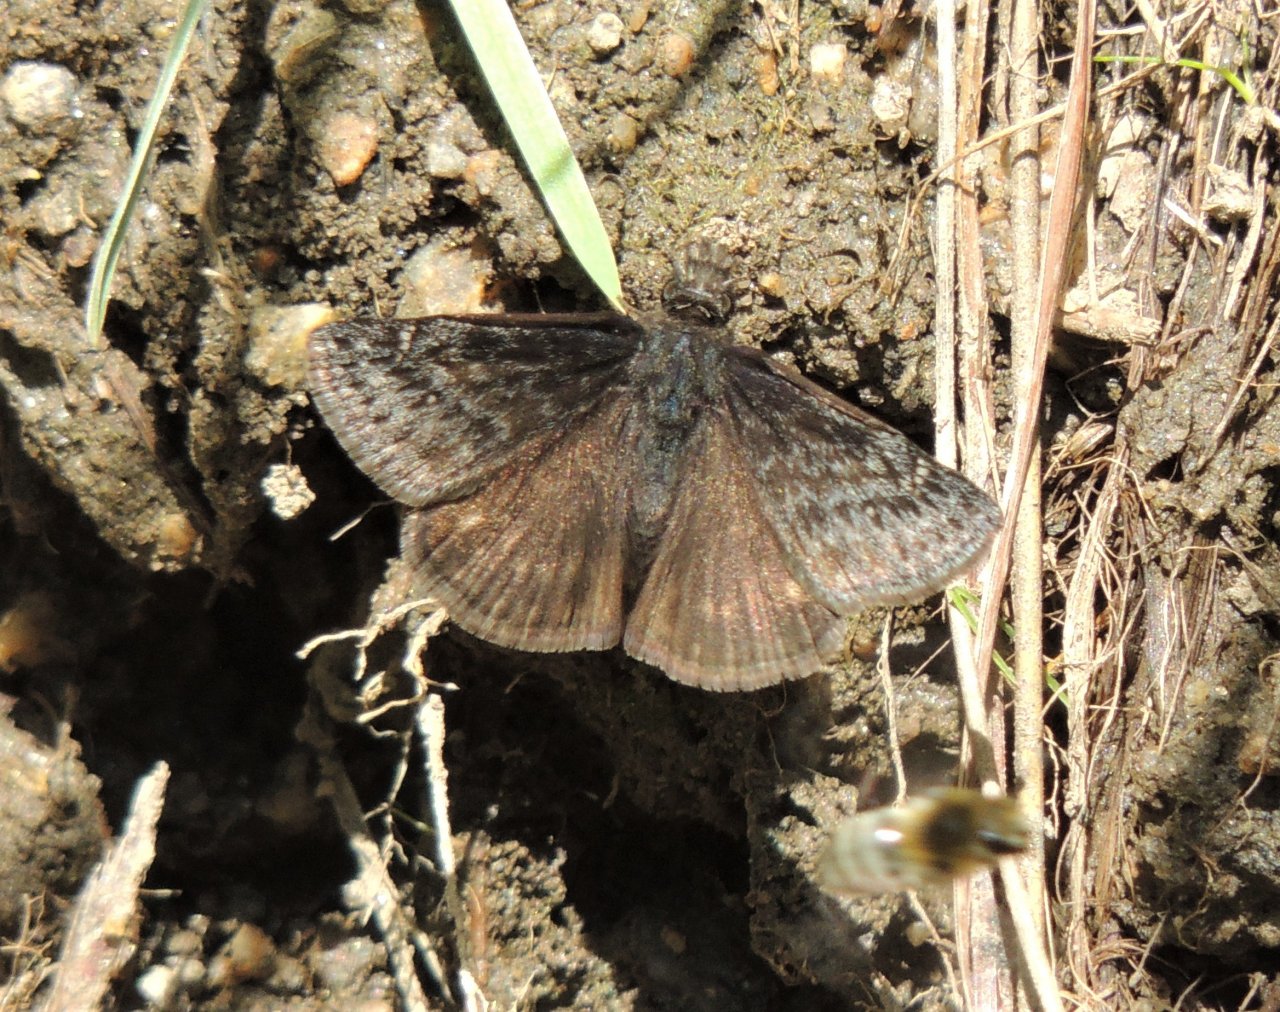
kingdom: Animalia
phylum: Arthropoda
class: Insecta
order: Lepidoptera
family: Hesperiidae
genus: Gesta
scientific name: Gesta
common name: Persius Duskywing
